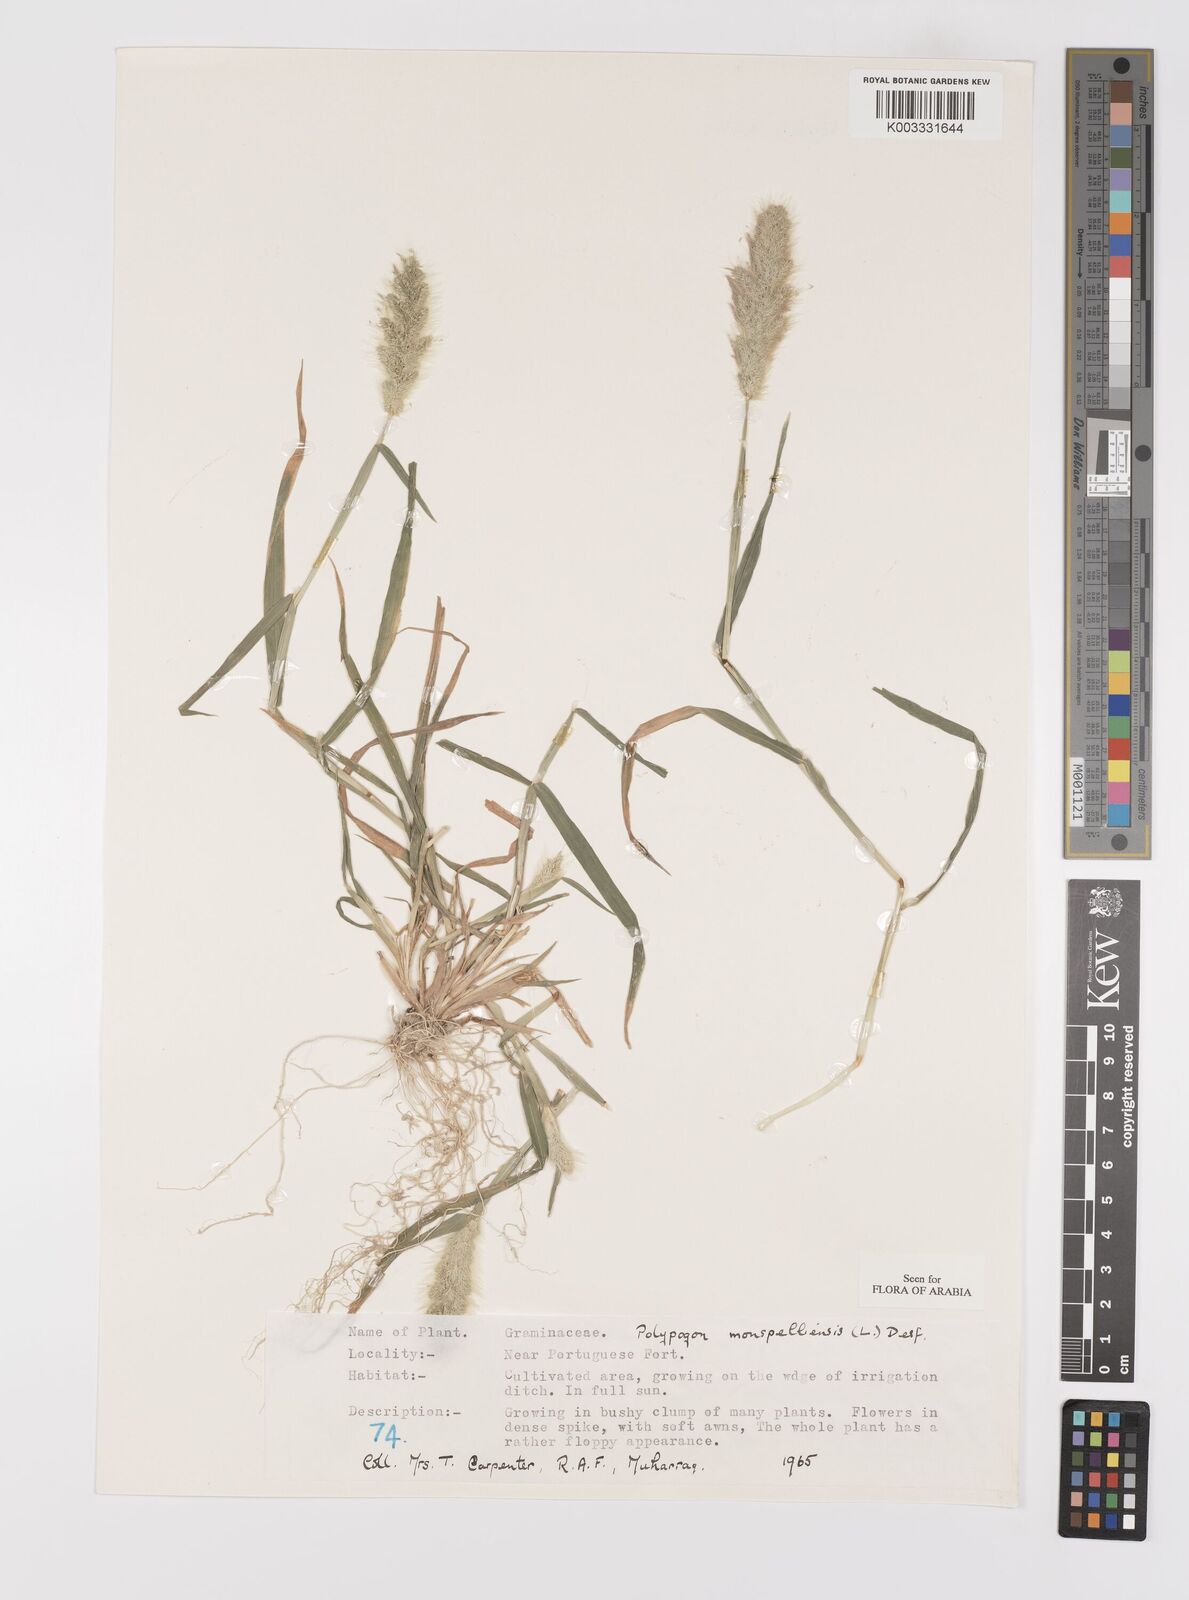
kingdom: Plantae
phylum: Tracheophyta
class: Liliopsida
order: Poales
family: Poaceae
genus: Polypogon
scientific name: Polypogon monspeliensis
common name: Annual rabbitsfoot grass
